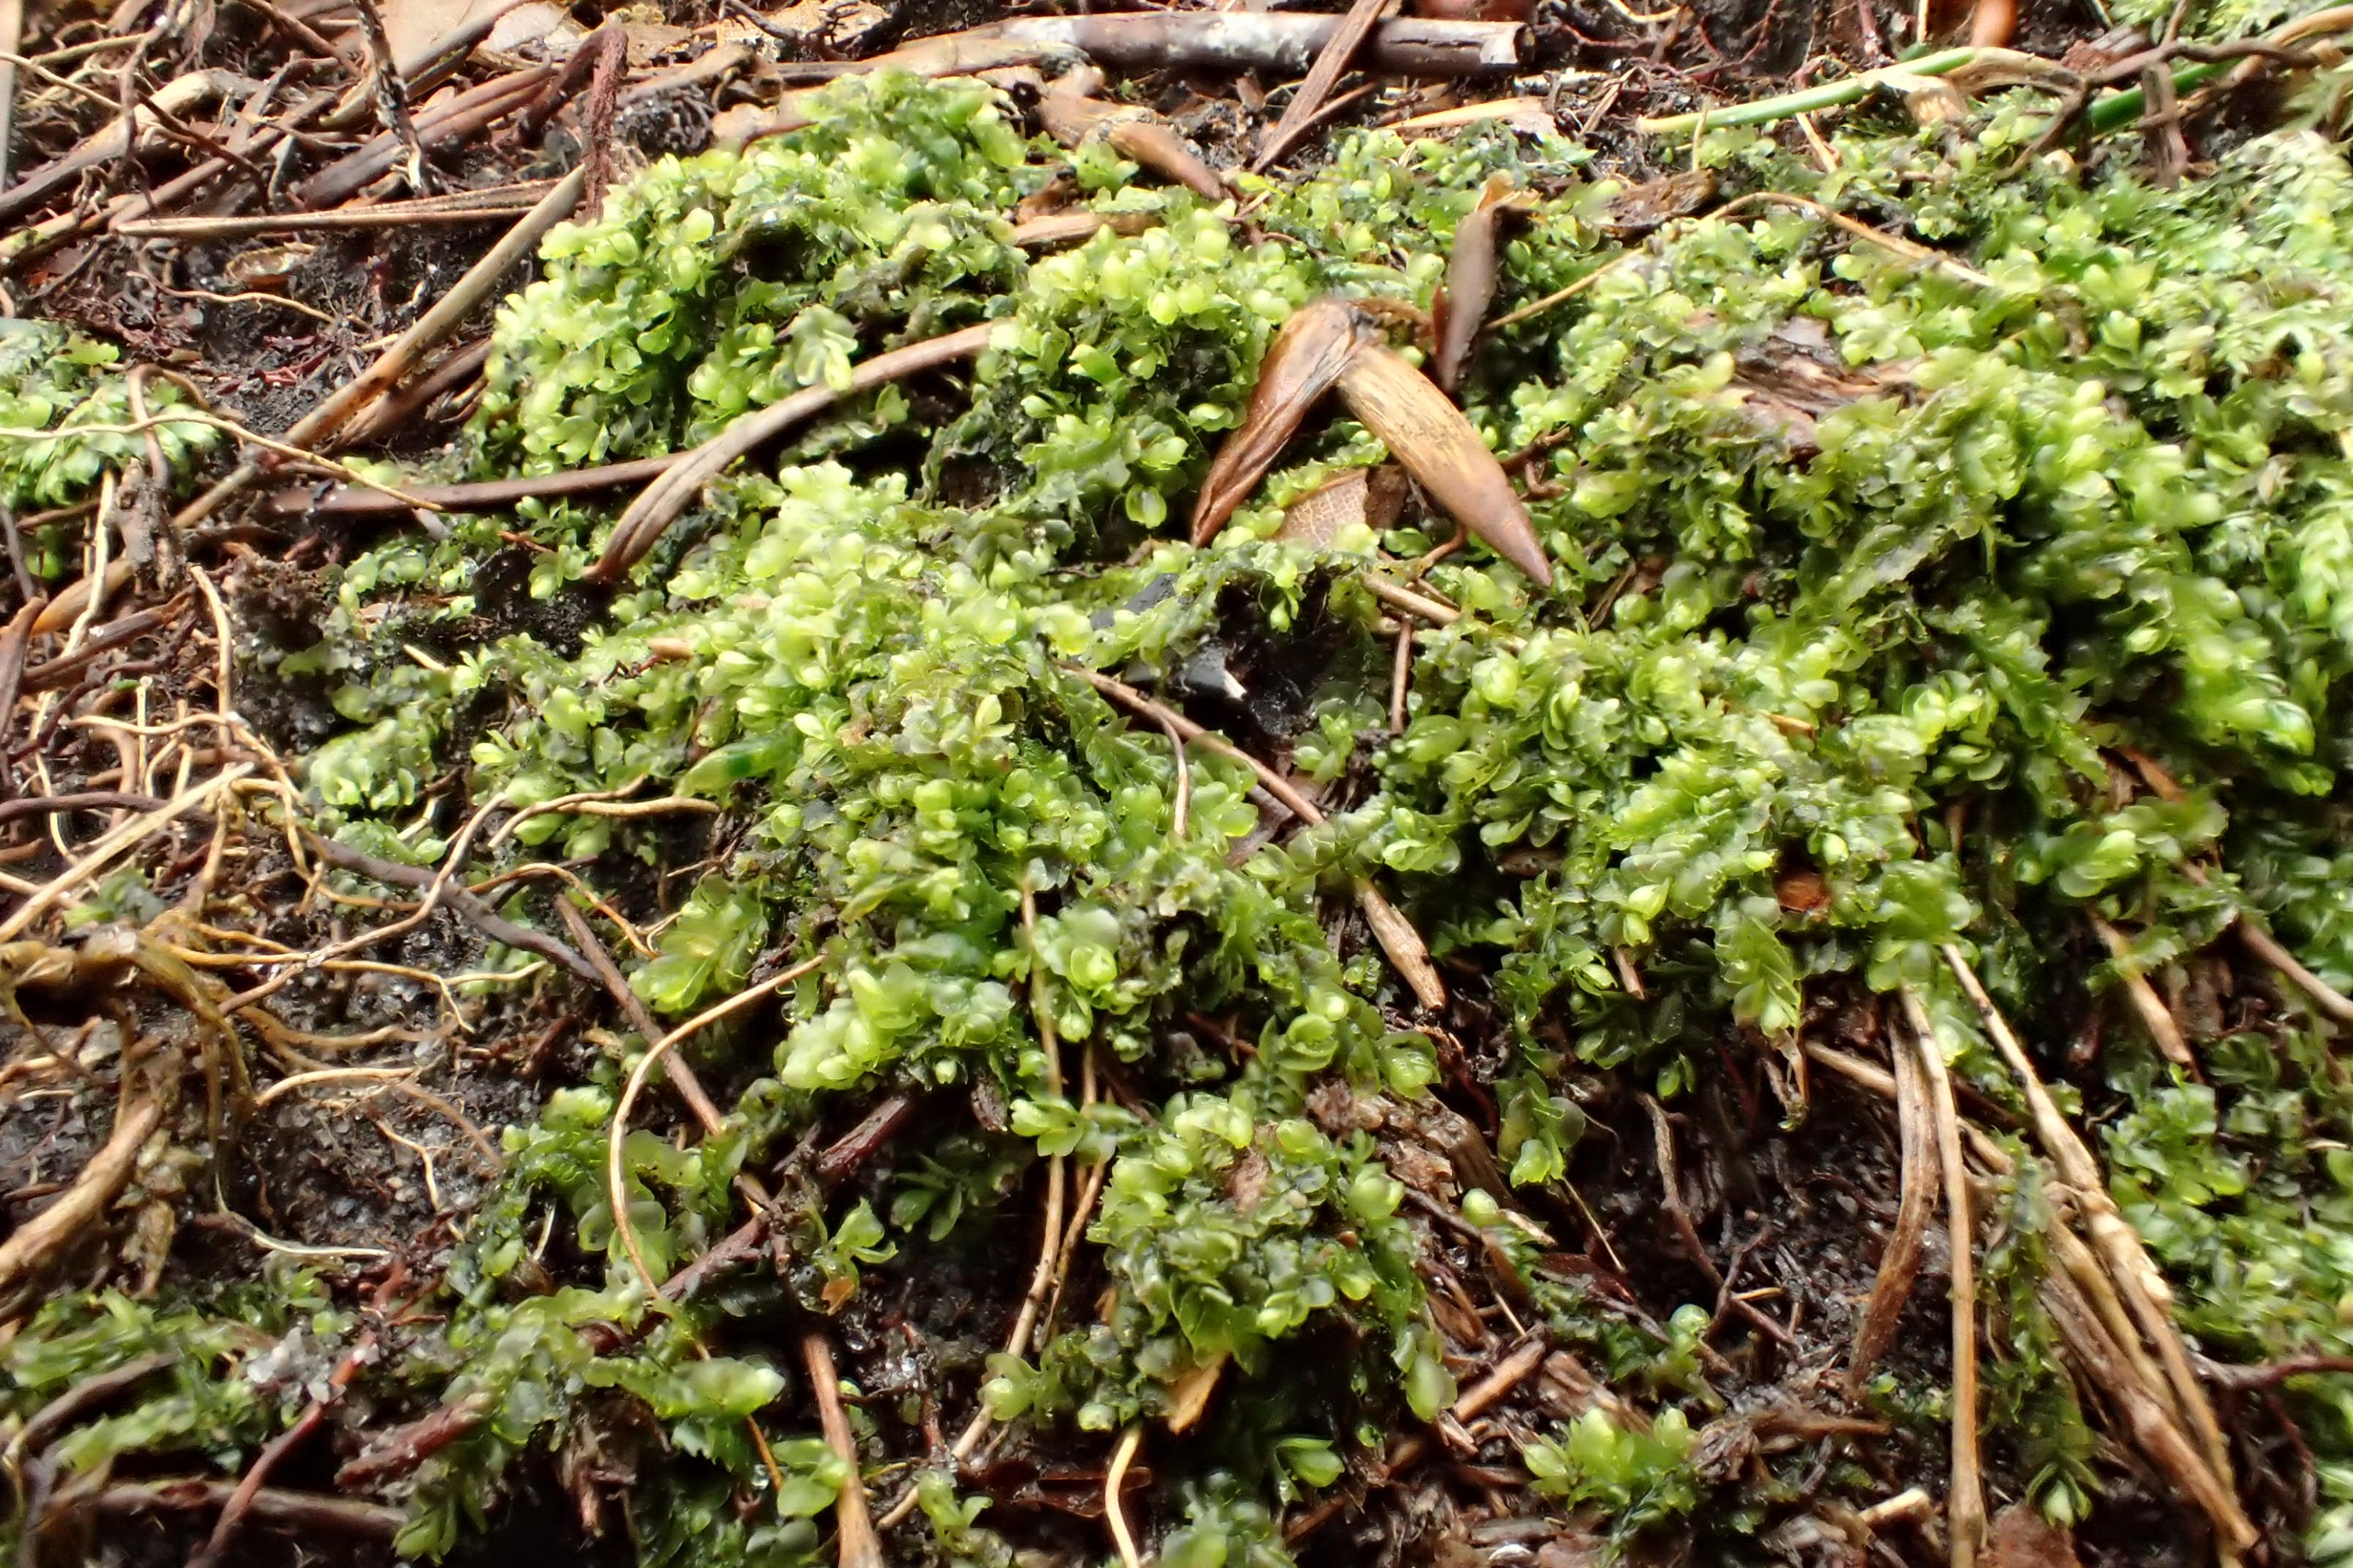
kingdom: Plantae
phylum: Marchantiophyta
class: Jungermanniopsida
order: Jungermanniales
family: Lophocoleaceae
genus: Lophocolea
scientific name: Lophocolea heterophylla
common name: Forskelligbladet kamsvøb
